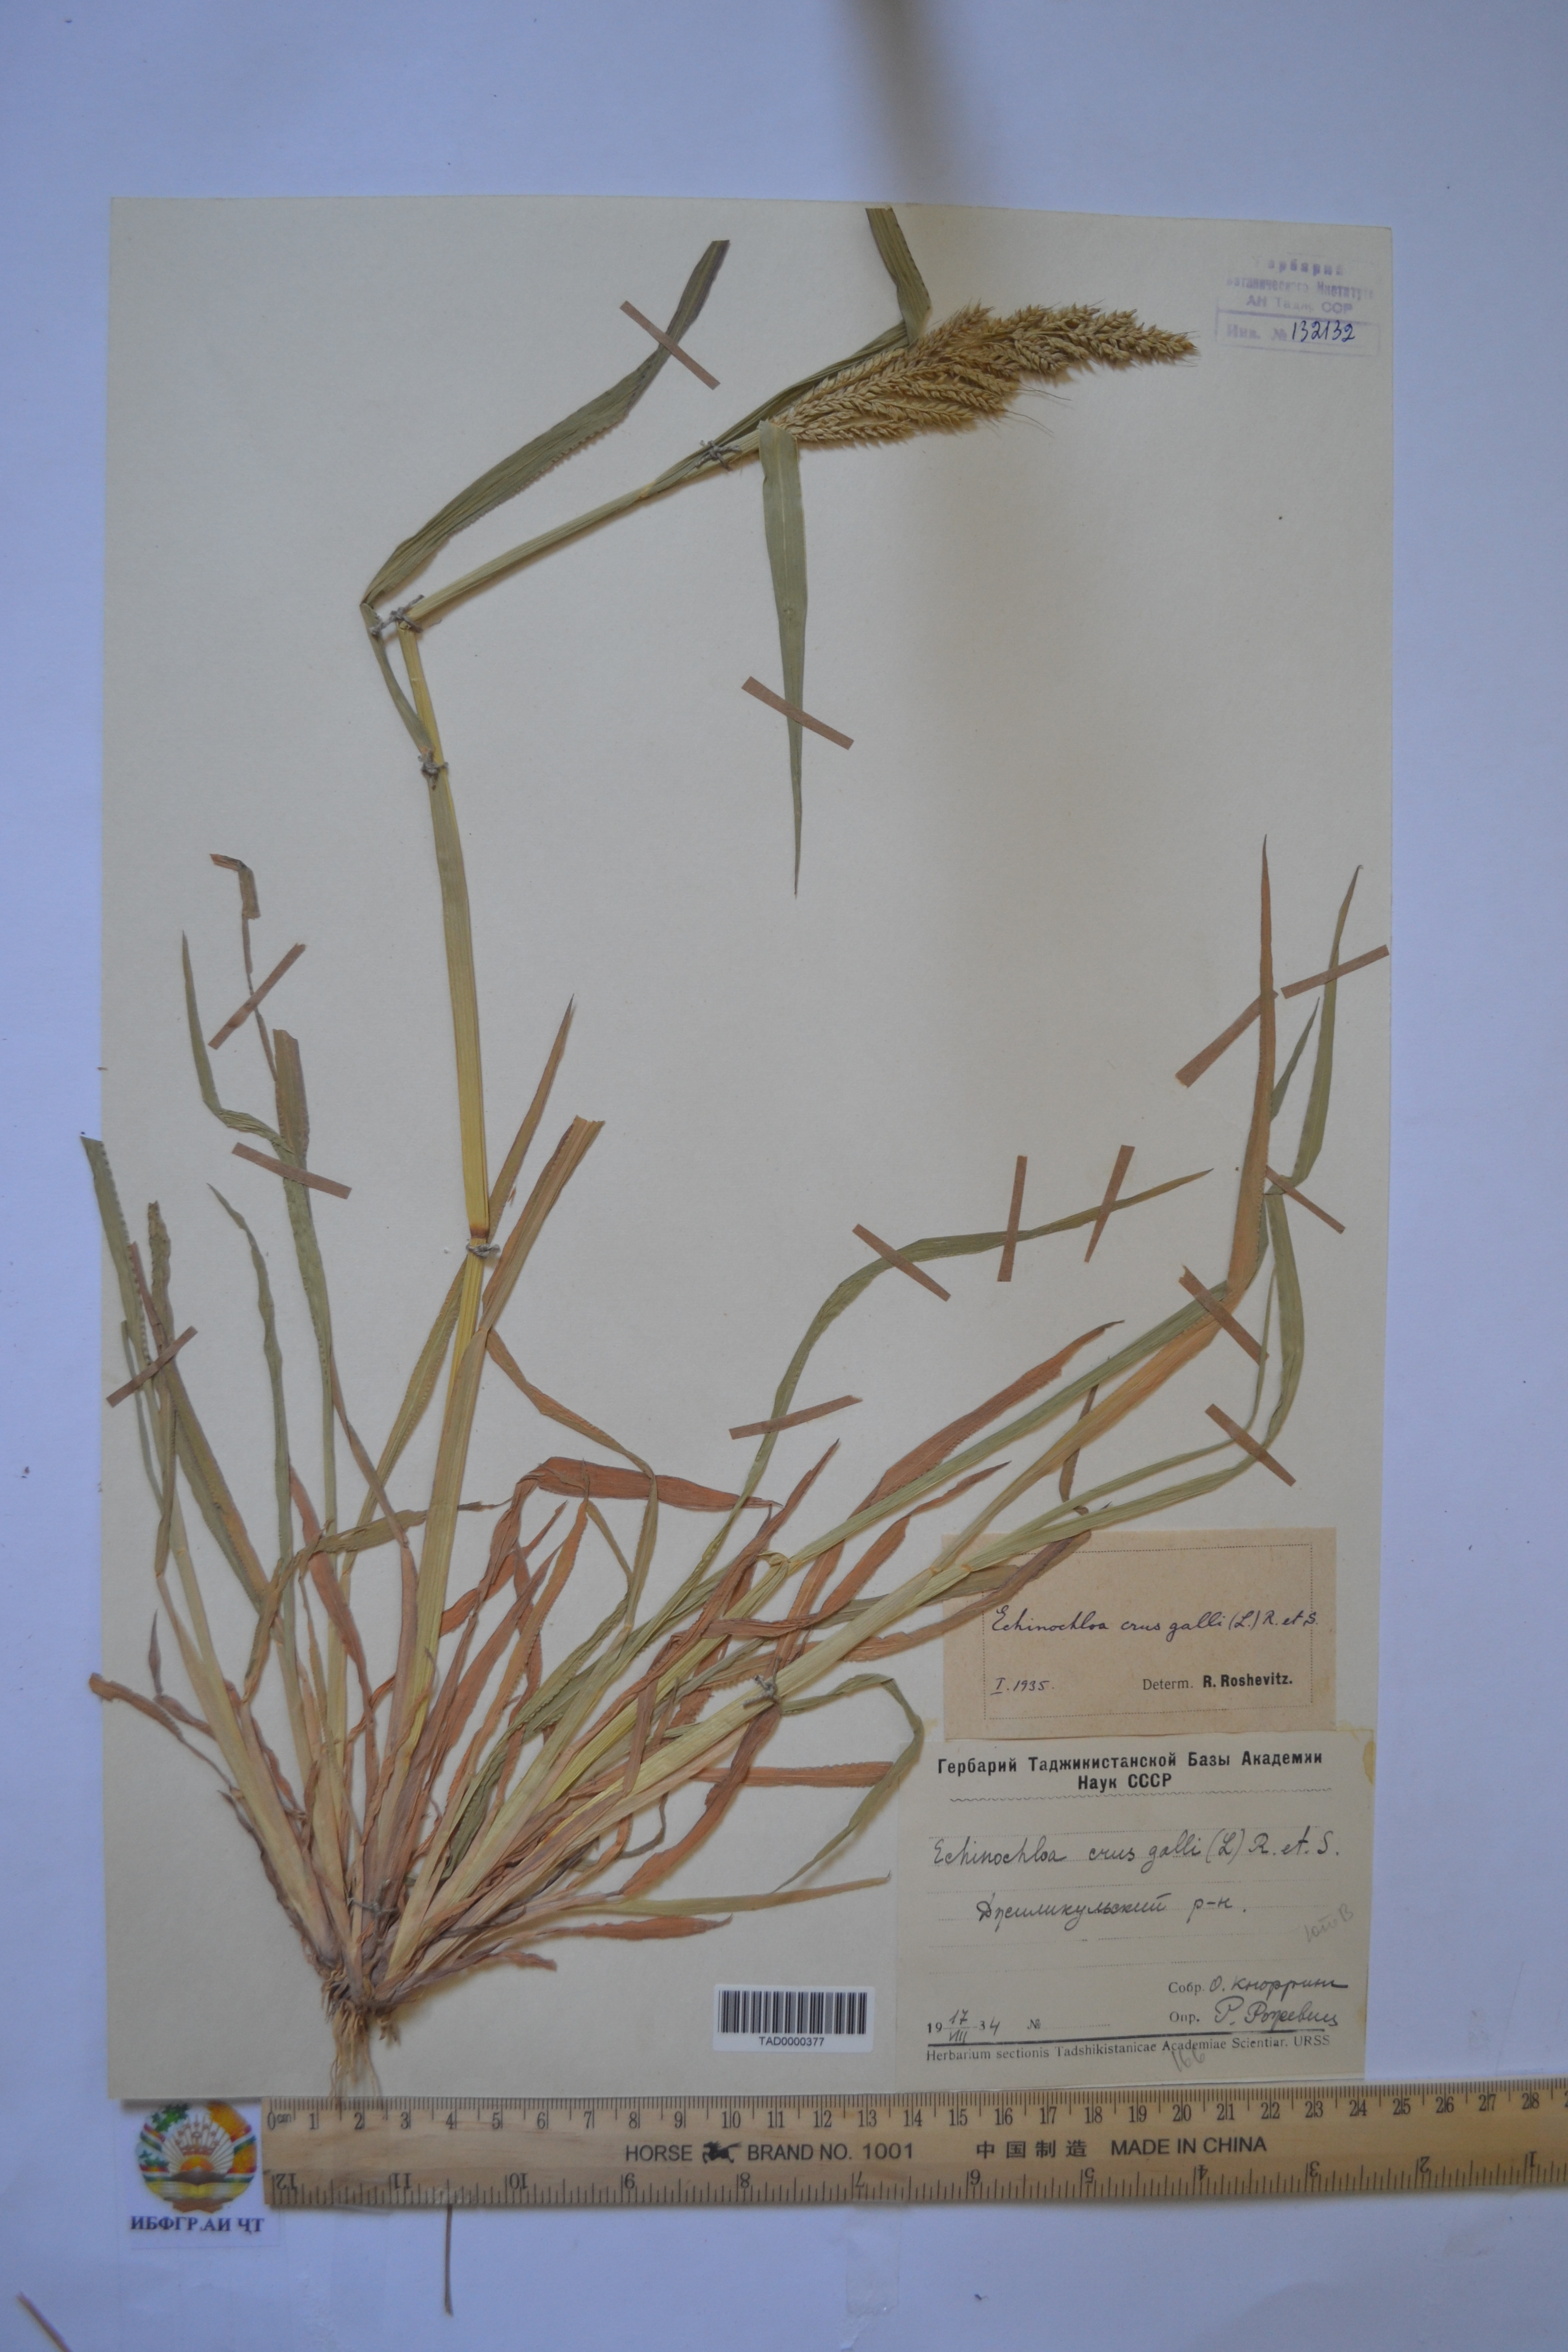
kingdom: Plantae
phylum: Tracheophyta
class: Liliopsida
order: Poales
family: Poaceae
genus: Echinochloa
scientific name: Echinochloa crus-galli
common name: Cockspur
